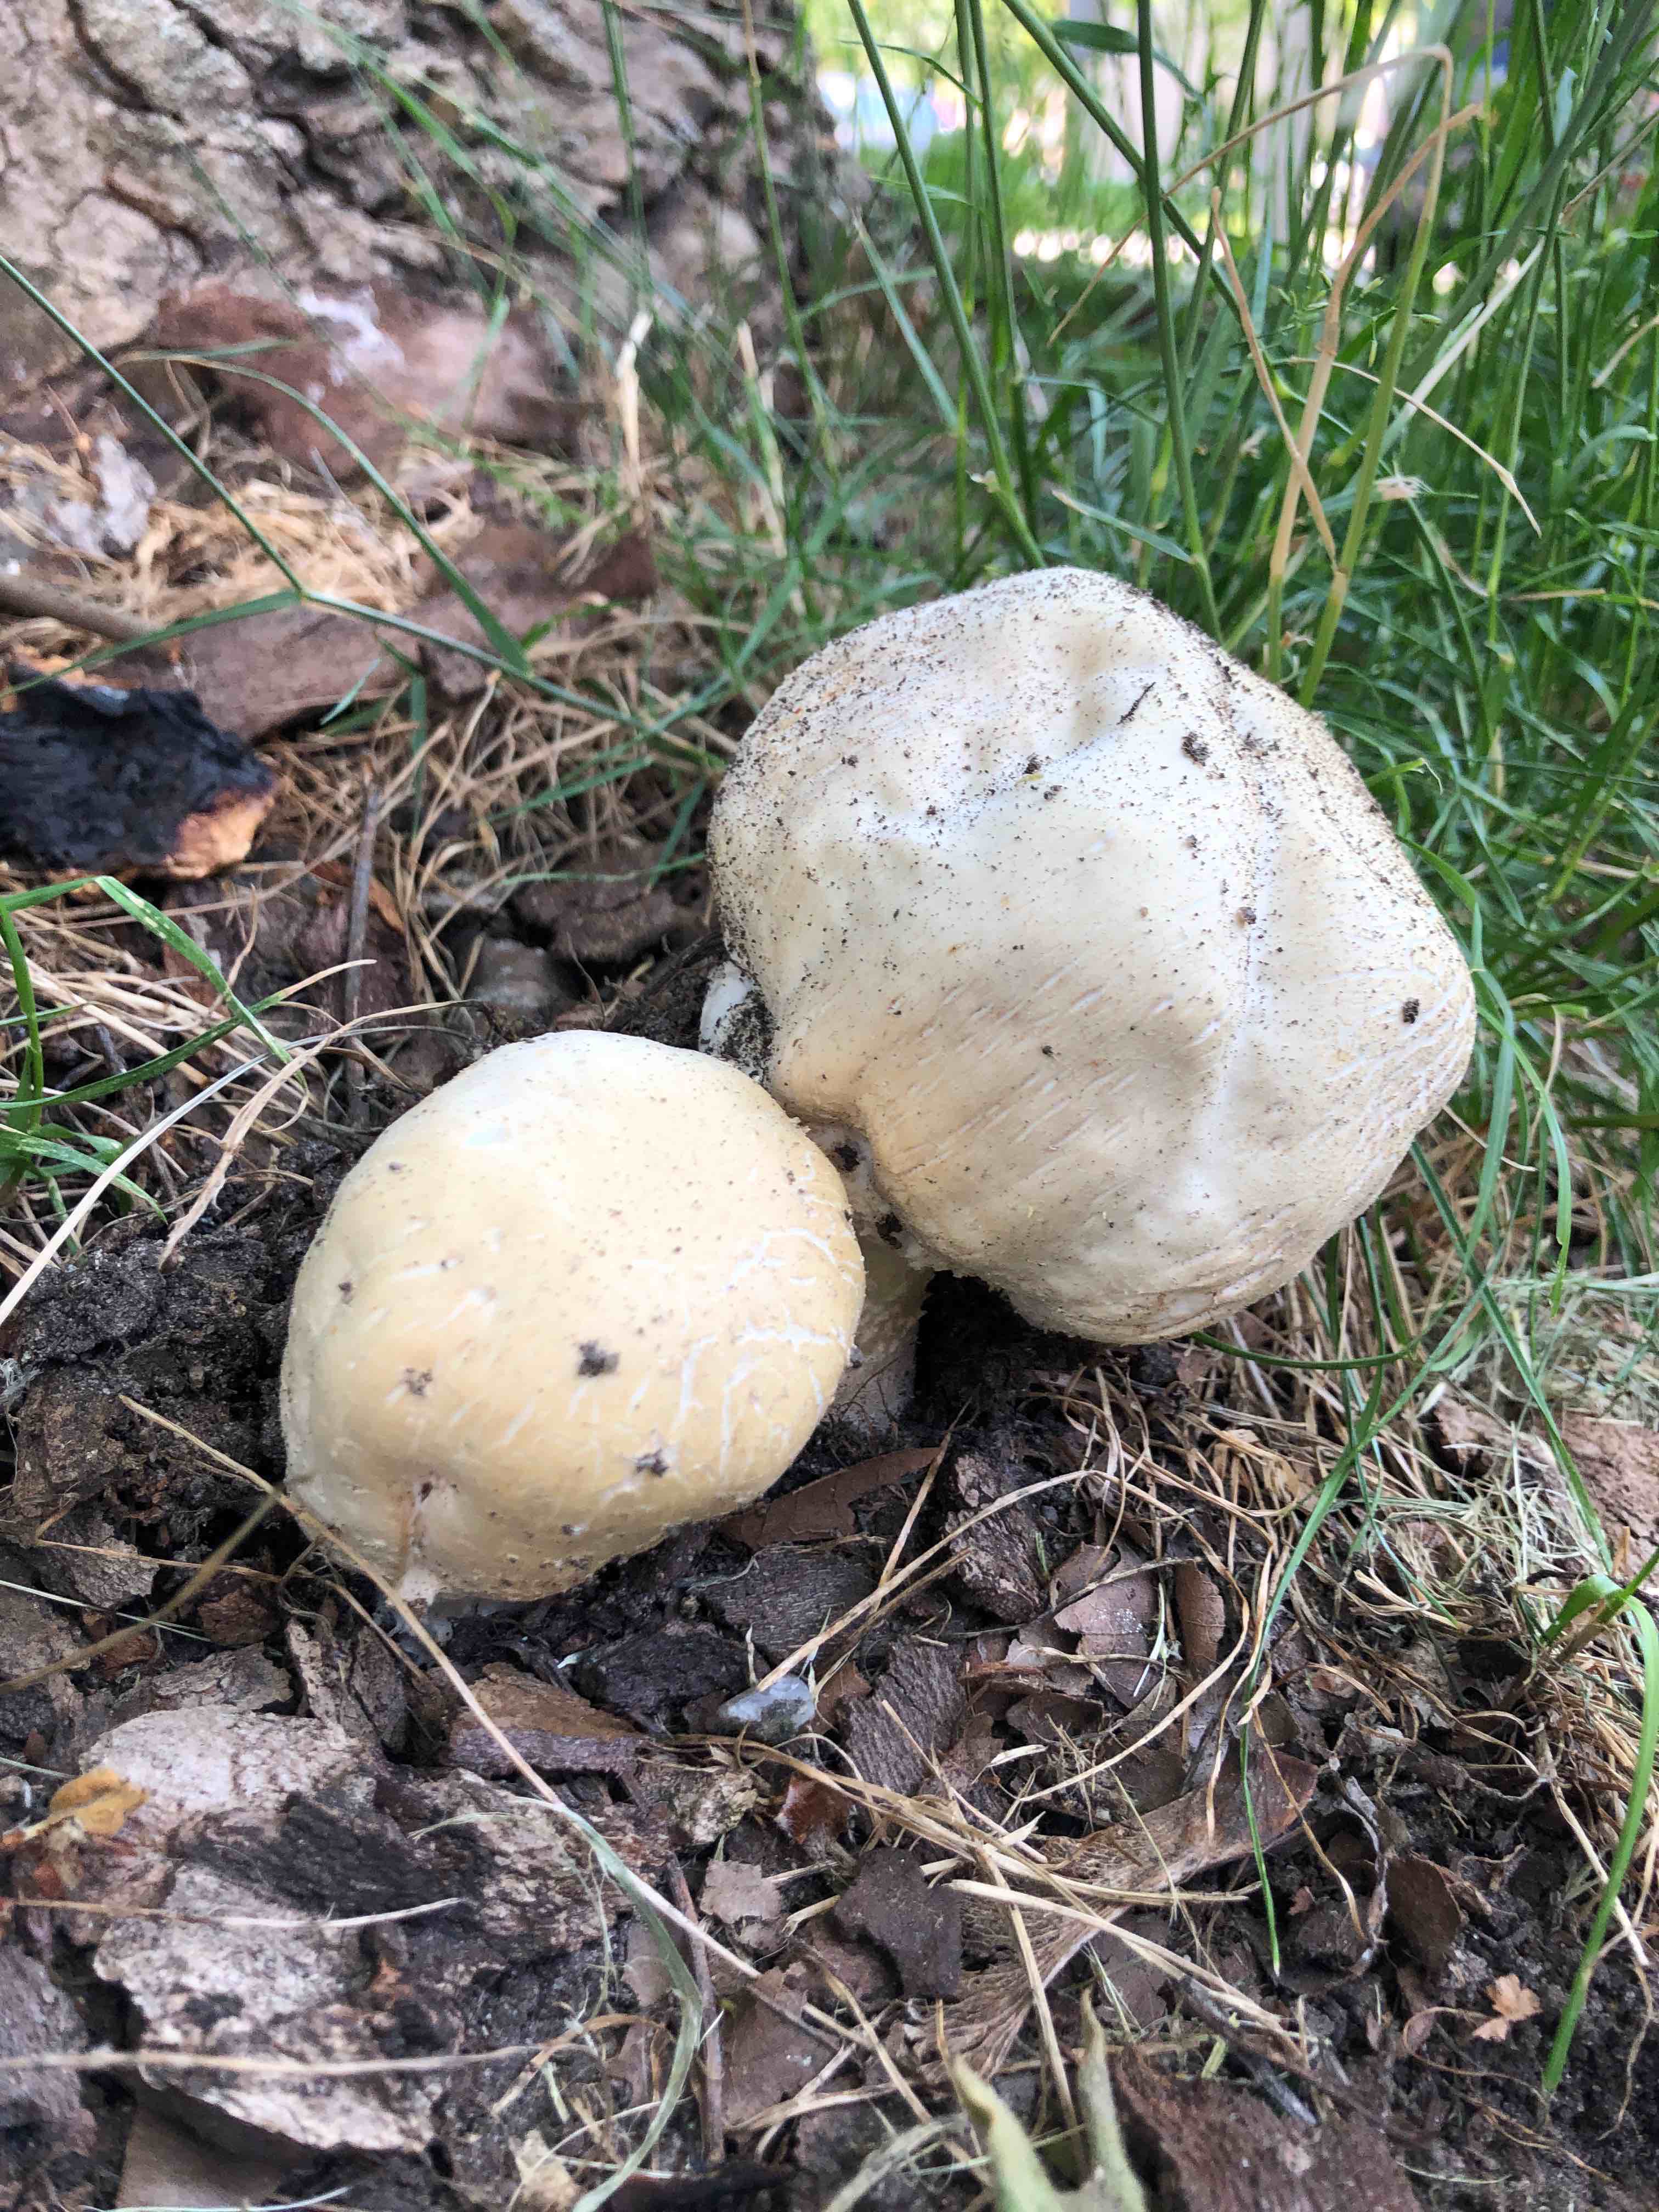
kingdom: Fungi
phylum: Basidiomycota
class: Agaricomycetes
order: Agaricales
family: Agaricaceae
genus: Agaricus
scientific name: Agaricus
